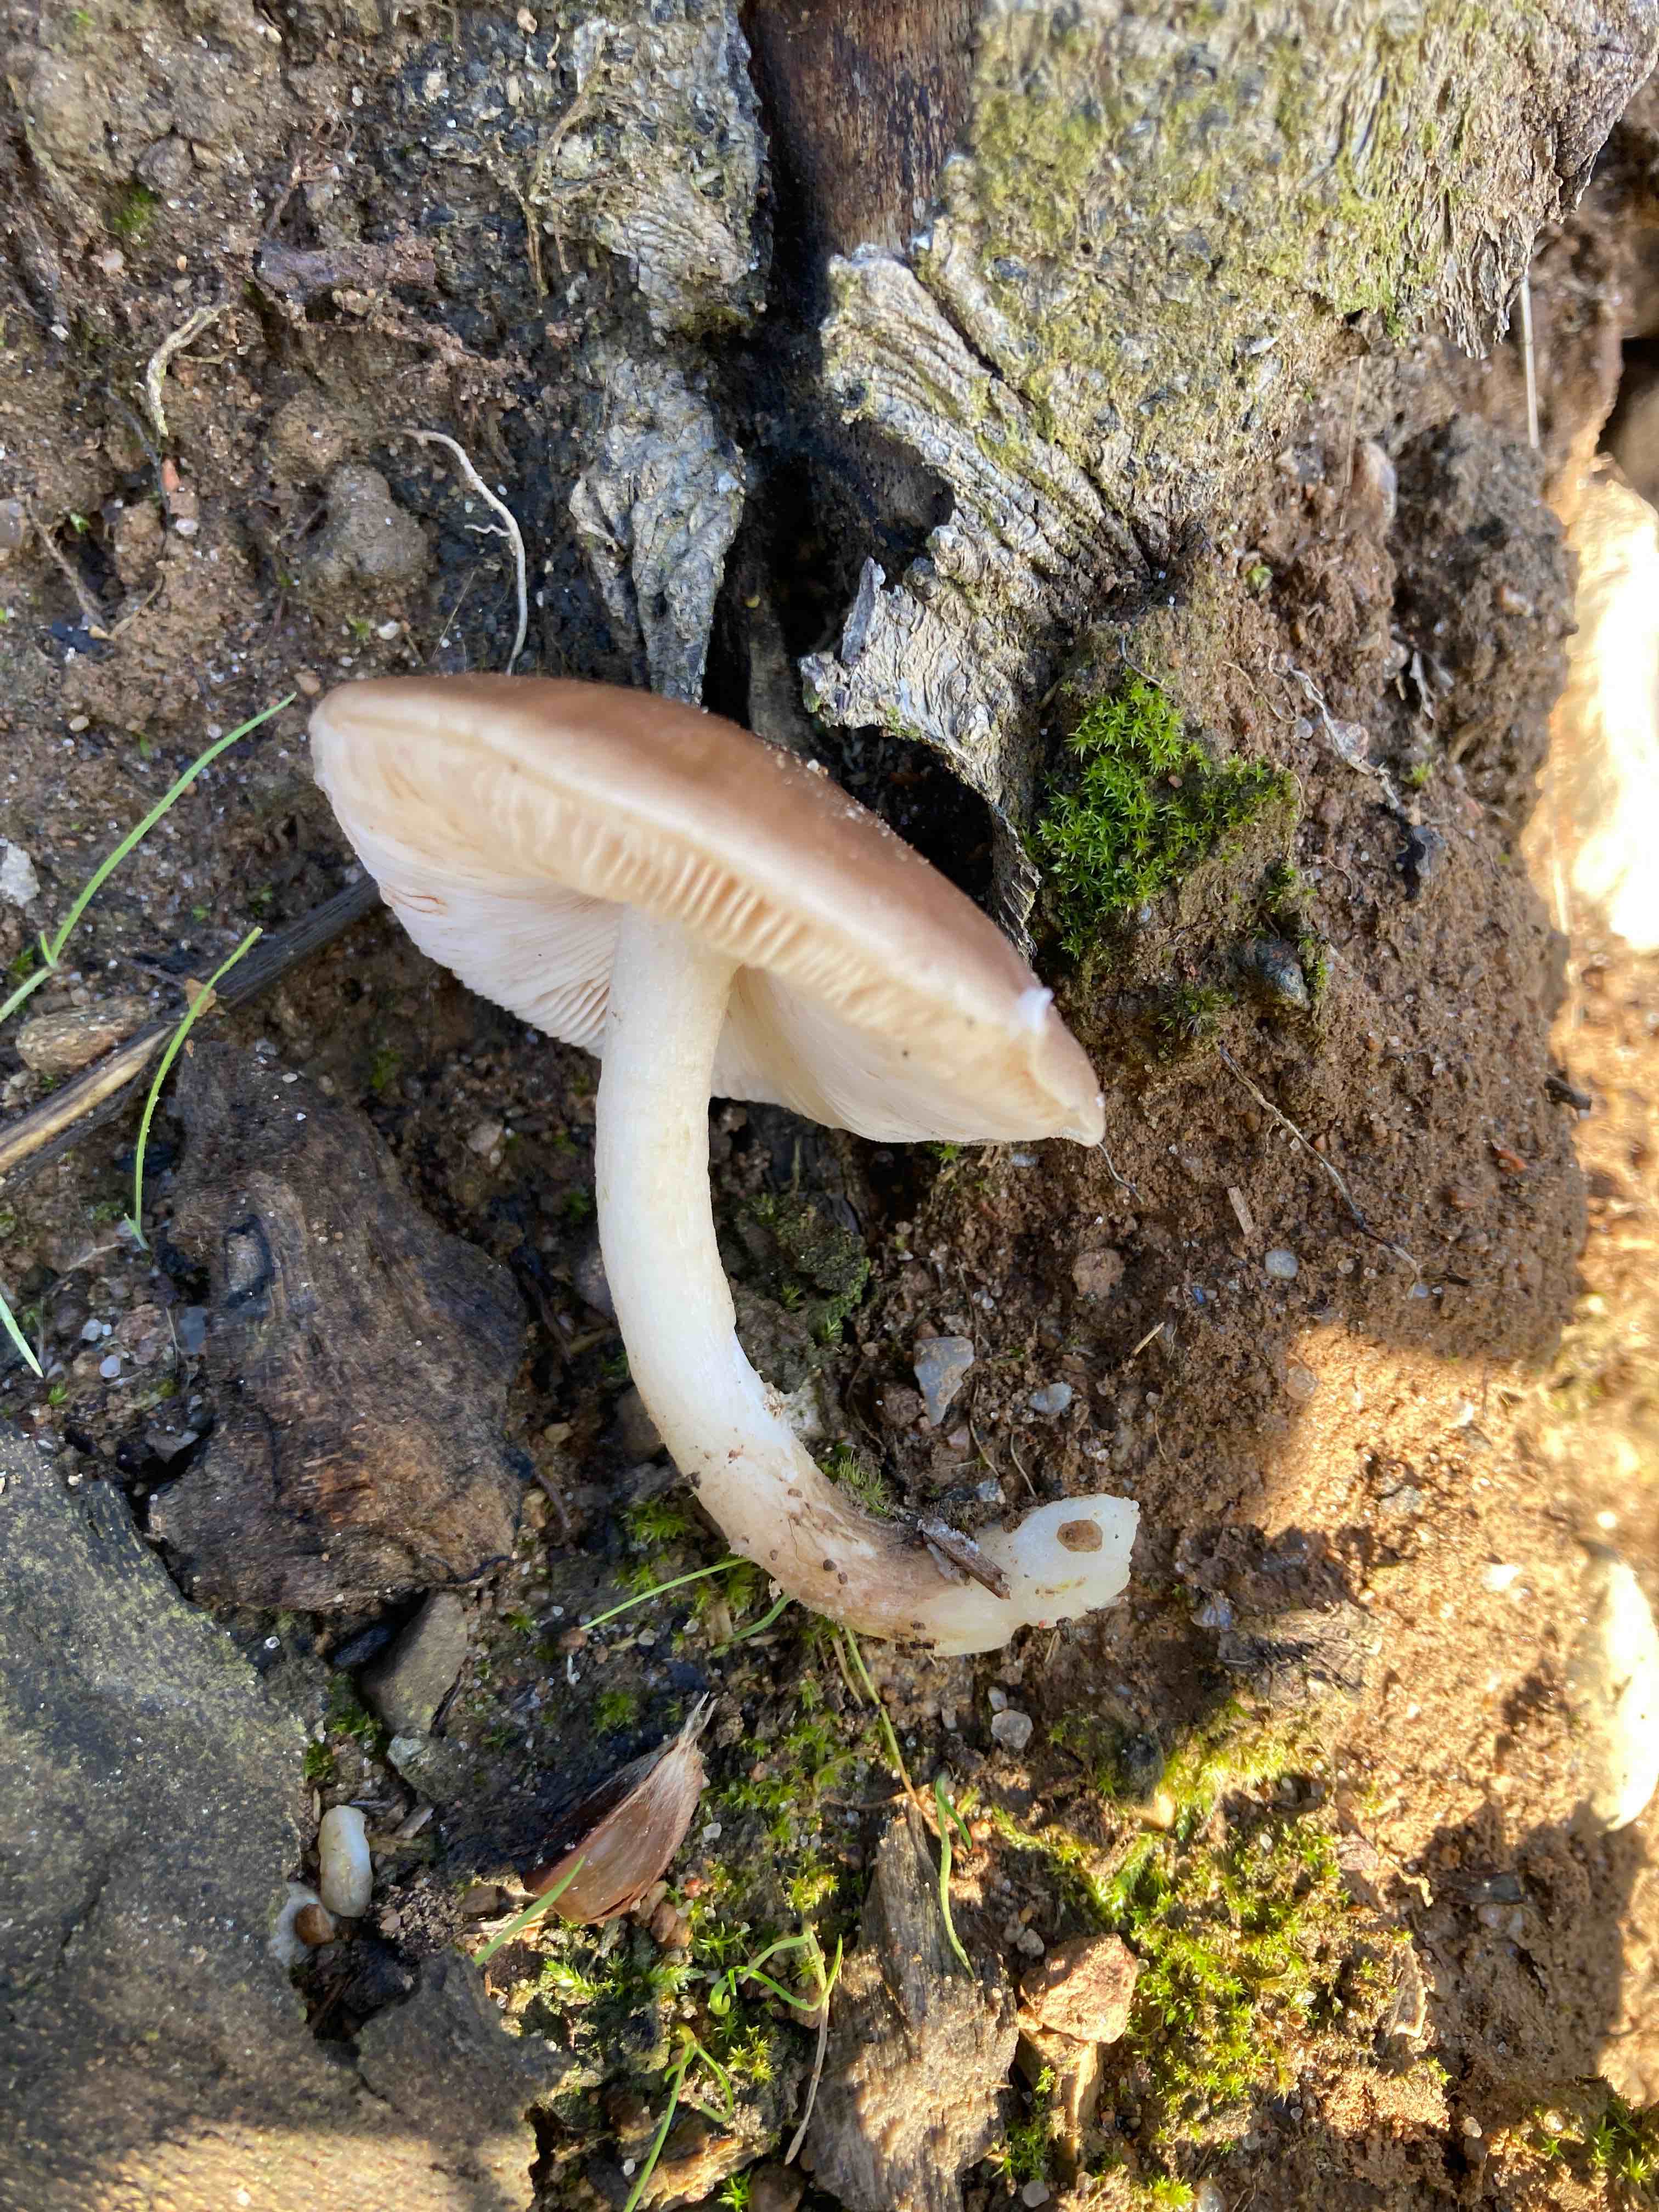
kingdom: Fungi
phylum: Basidiomycota
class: Agaricomycetes
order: Agaricales
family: Pluteaceae
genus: Pluteus
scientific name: Pluteus cervinus
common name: sodfarvet skærmhat
